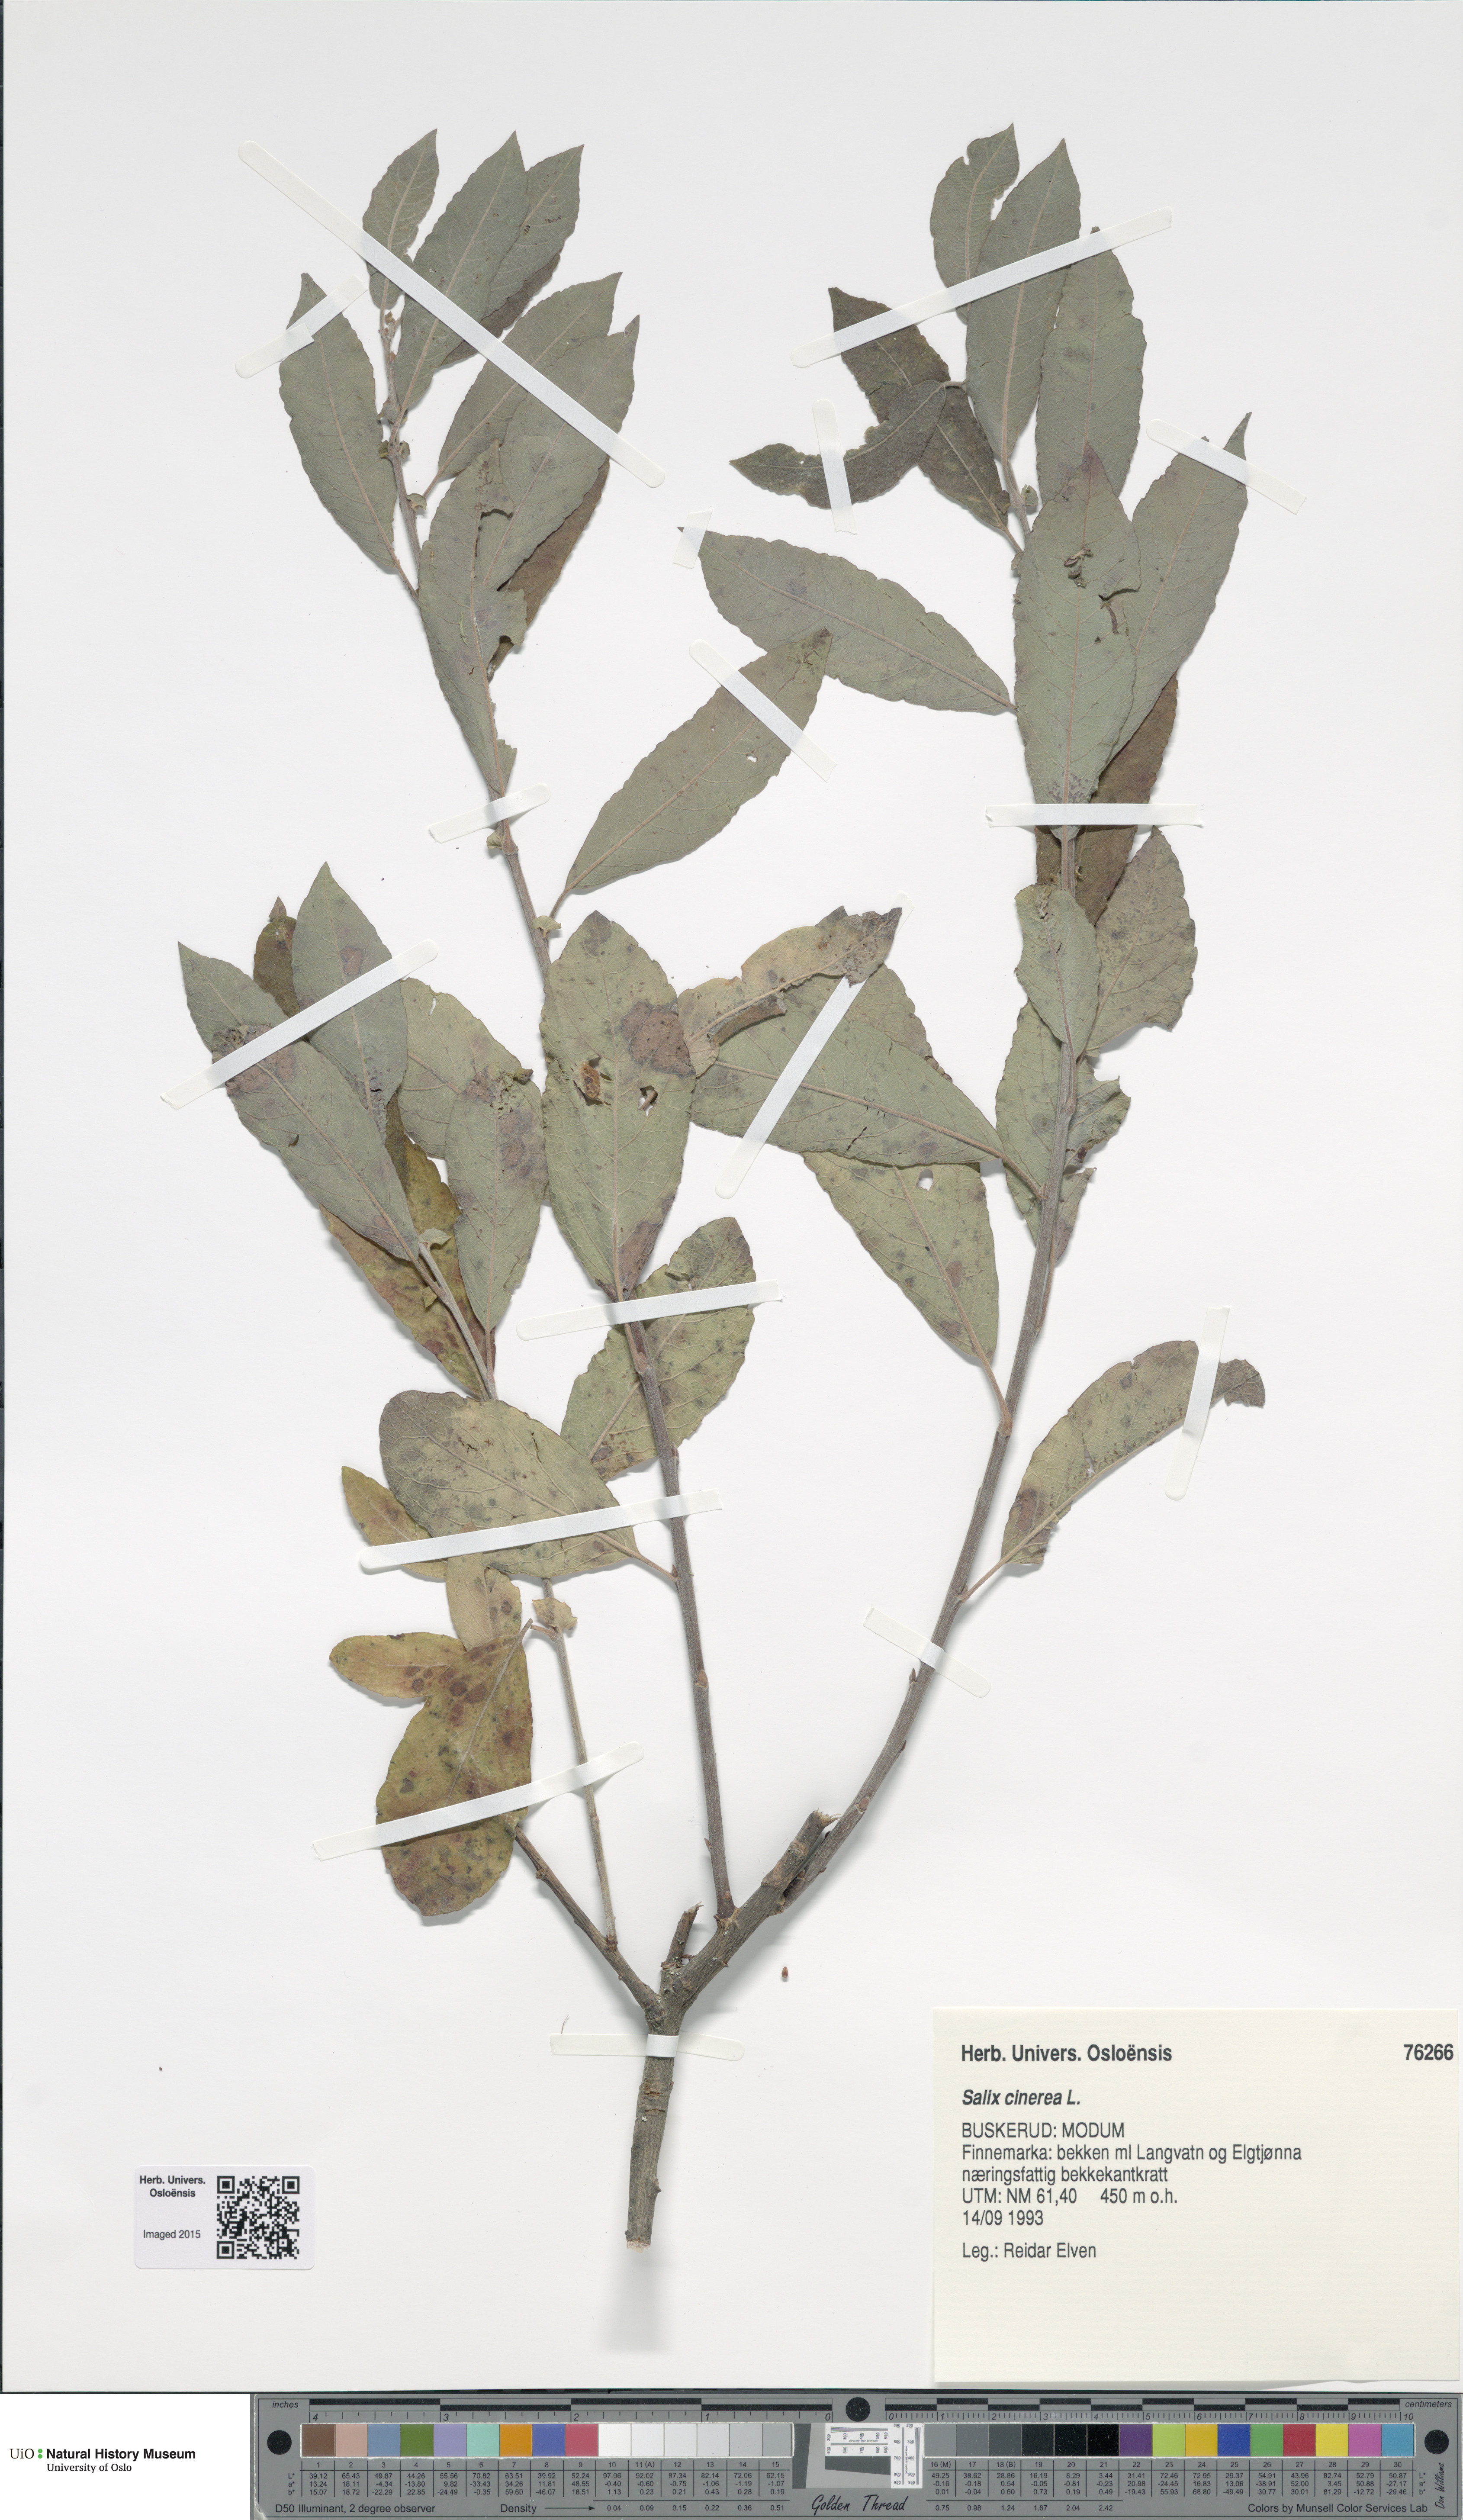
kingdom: Plantae
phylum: Tracheophyta
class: Magnoliopsida
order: Malpighiales
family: Salicaceae
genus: Salix
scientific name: Salix cinerea
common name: Common sallow
